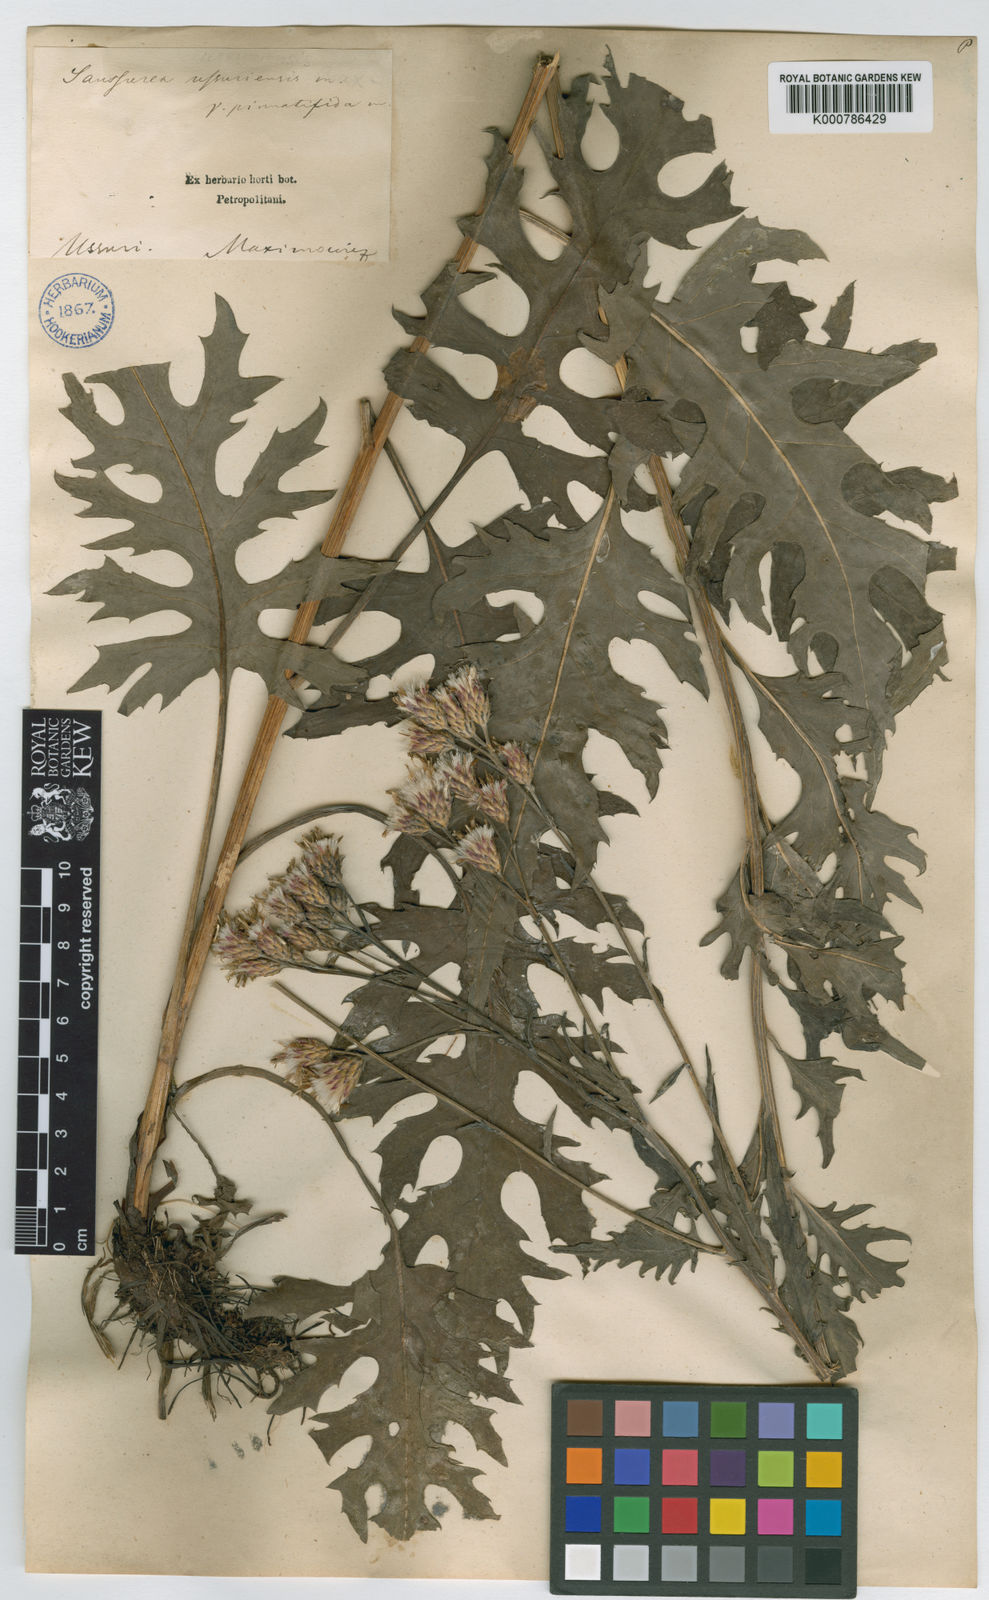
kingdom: Plantae
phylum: Tracheophyta
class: Magnoliopsida
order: Asterales
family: Asteraceae
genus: Saussurea
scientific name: Saussurea ussuriensis
